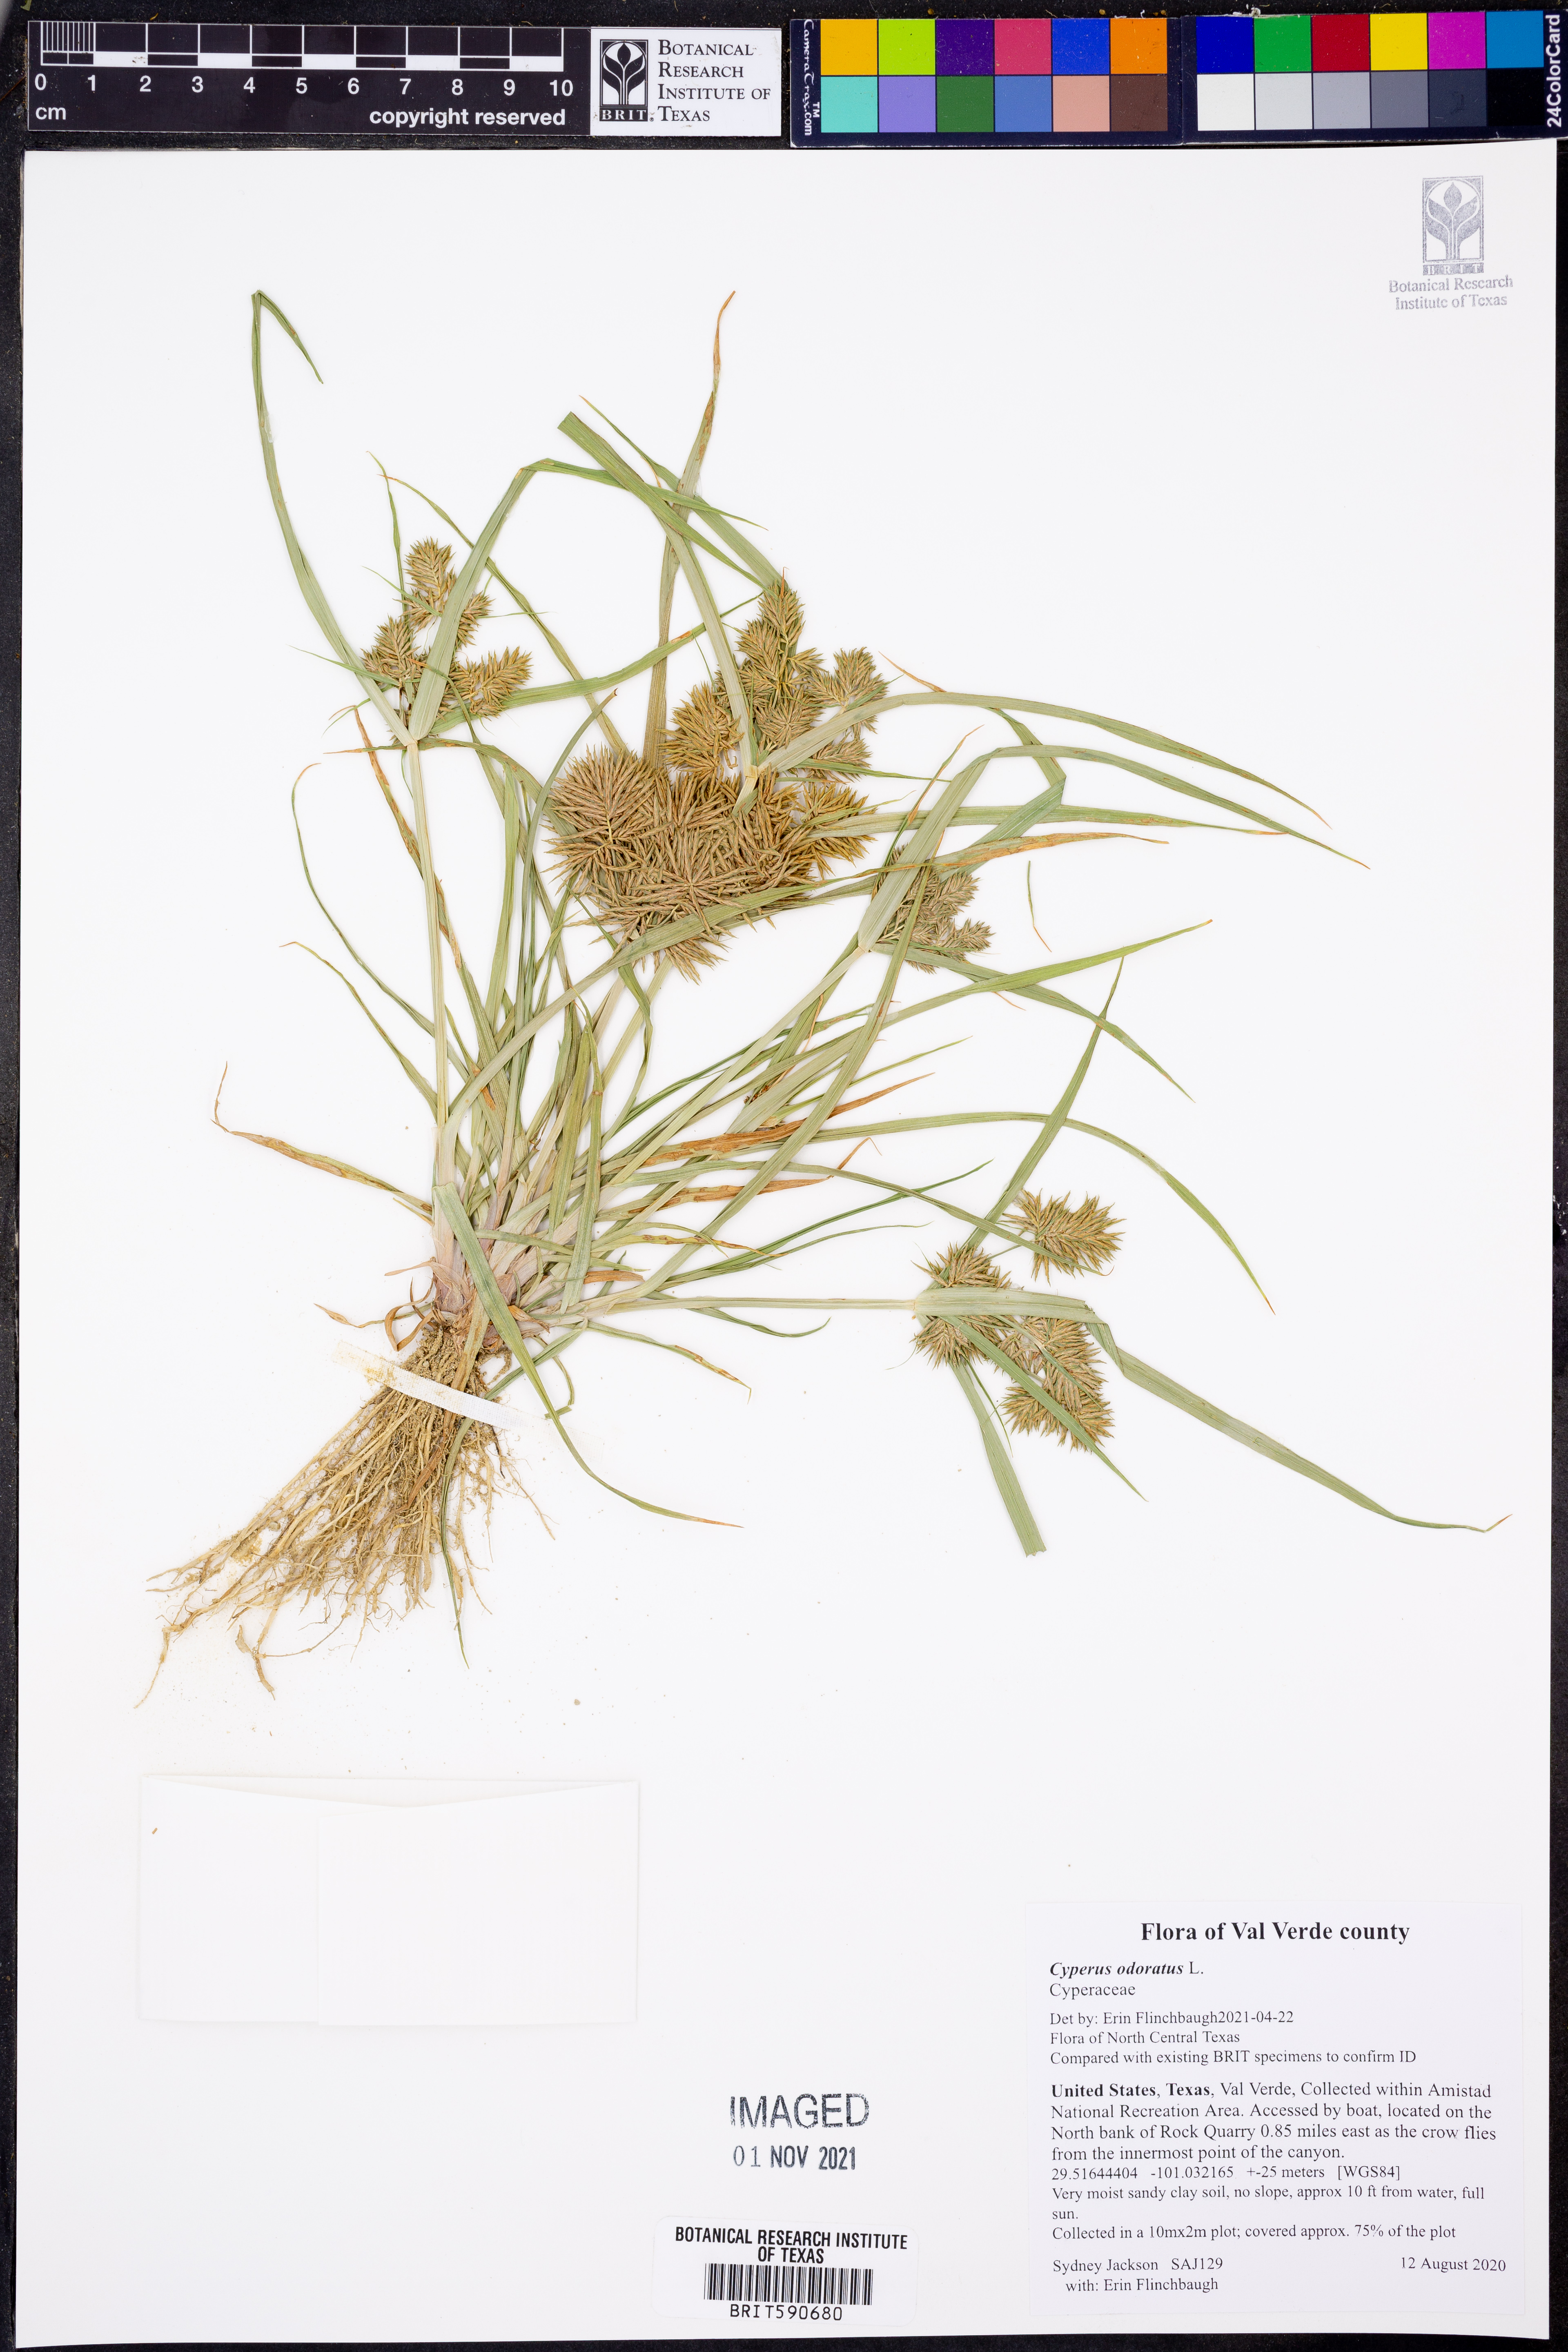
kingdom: Plantae
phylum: Tracheophyta
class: Liliopsida
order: Poales
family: Cyperaceae
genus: Cyperus
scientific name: Cyperus odoratus
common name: Fragrant flatsedge
